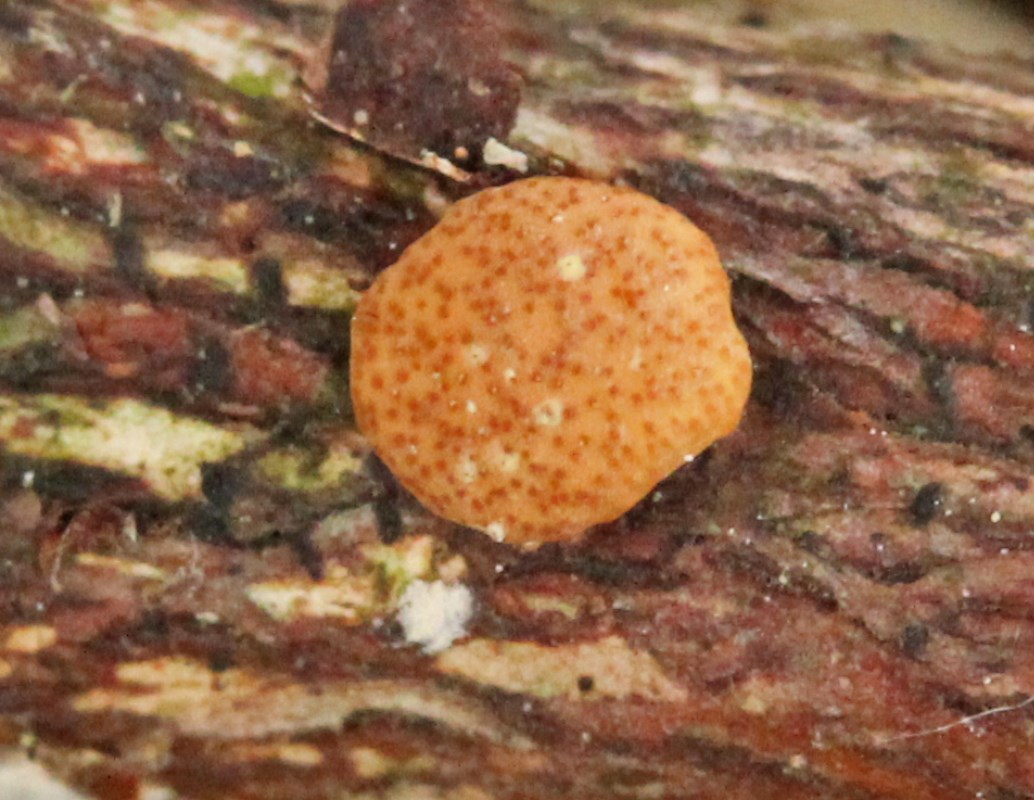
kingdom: Fungi
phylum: Ascomycota
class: Sordariomycetes
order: Hypocreales
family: Hypocreaceae
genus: Trichoderma
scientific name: Trichoderma
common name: kødkerne
